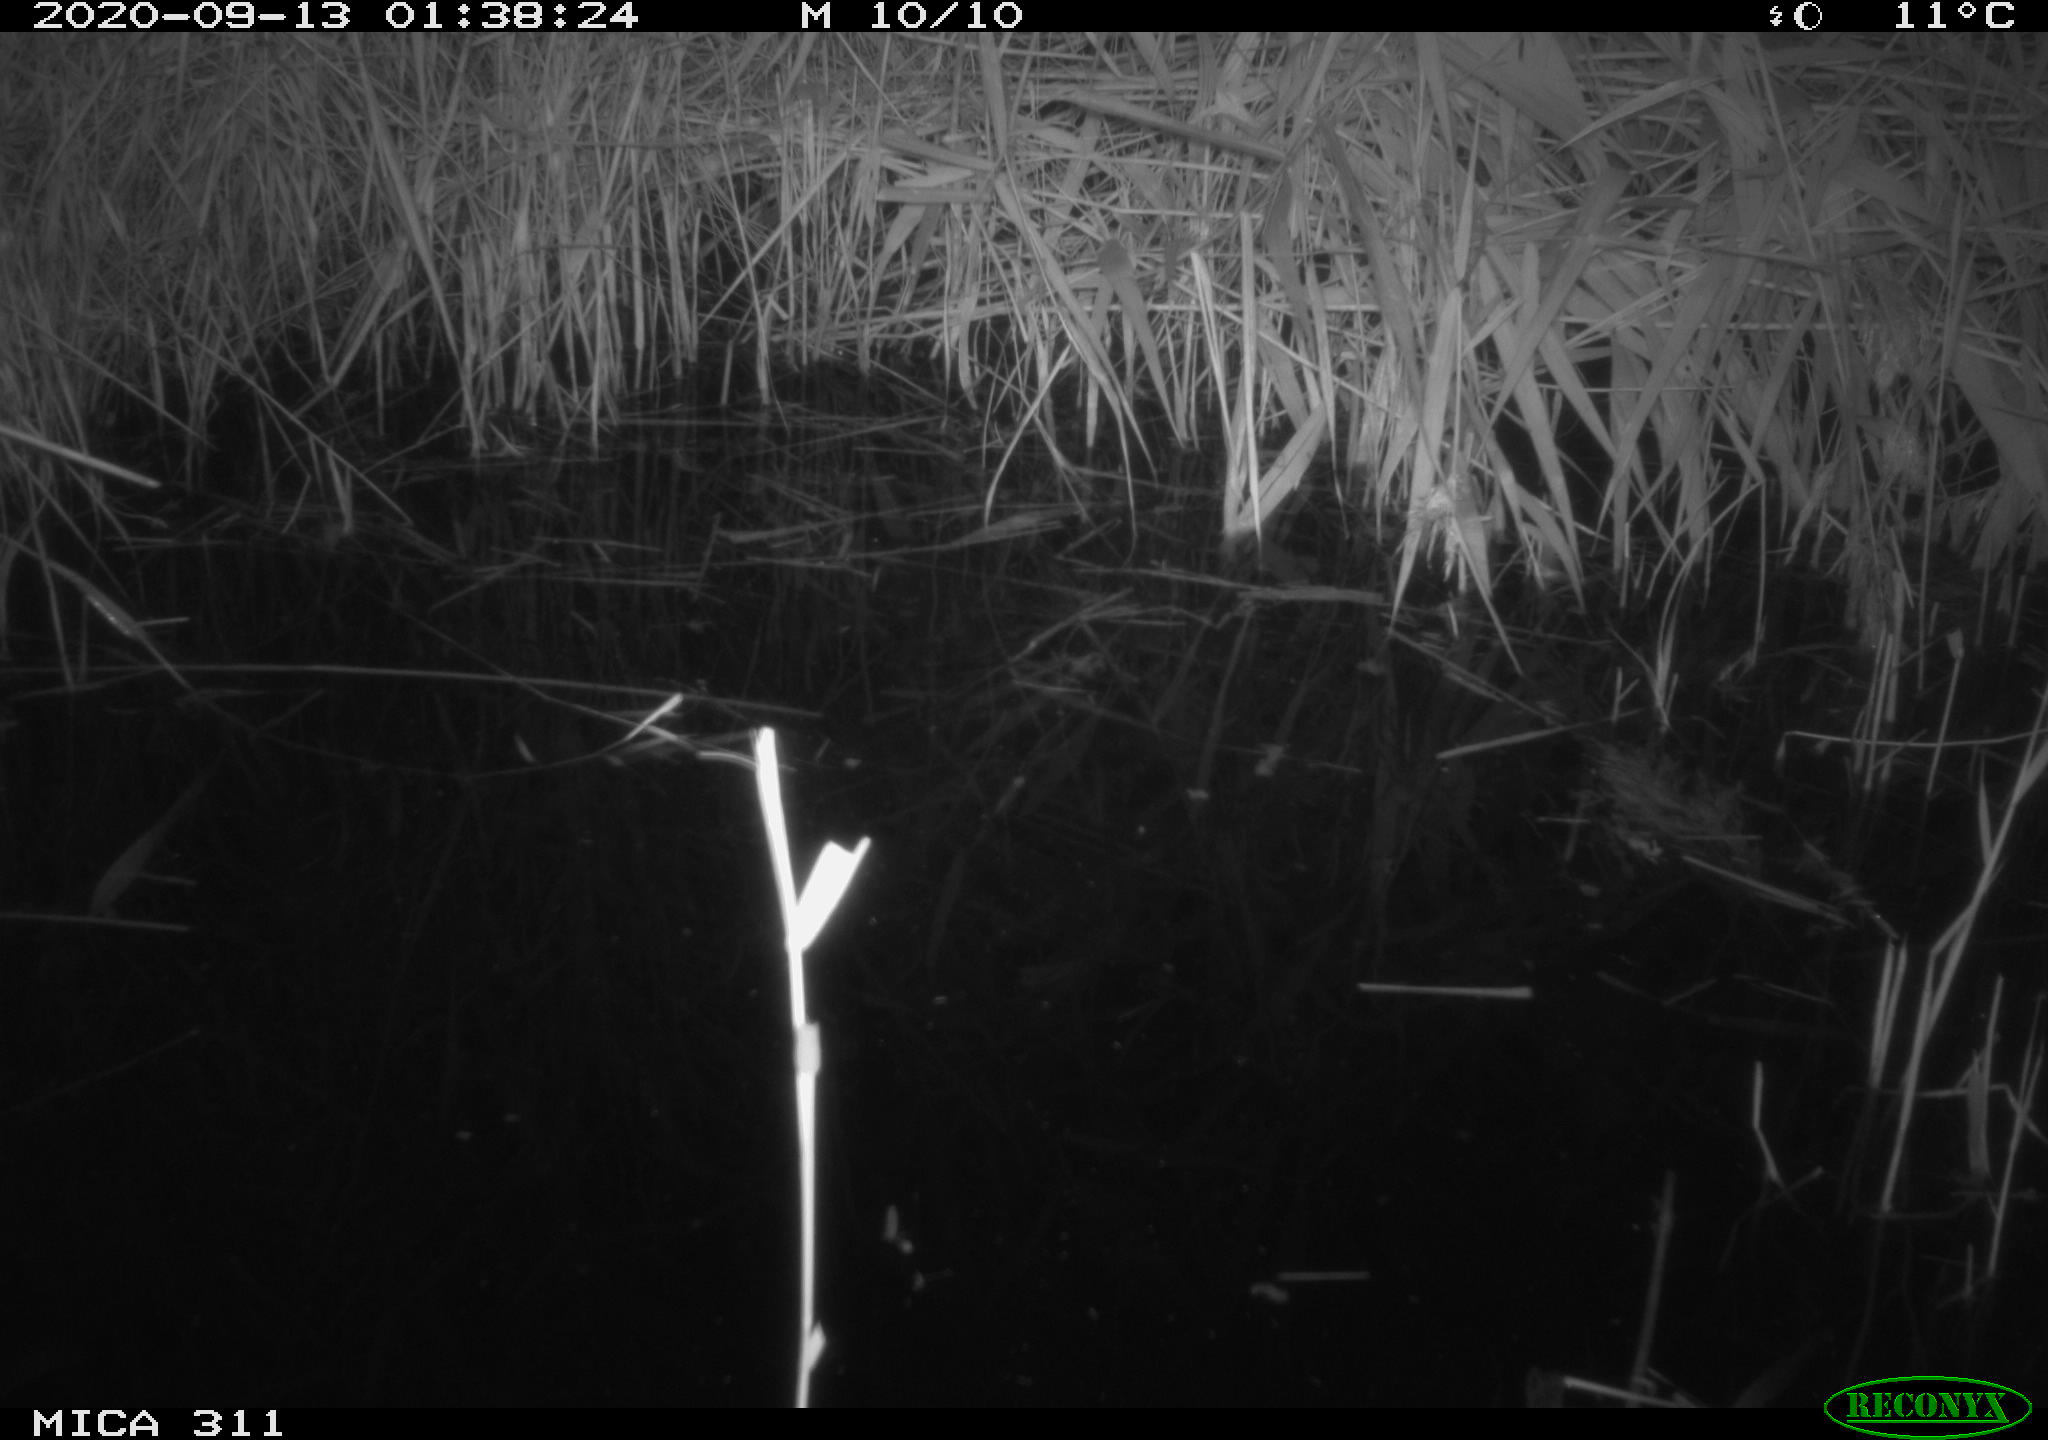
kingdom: Animalia
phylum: Chordata
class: Mammalia
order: Rodentia
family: Muridae
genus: Rattus
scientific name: Rattus norvegicus
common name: Brown rat
